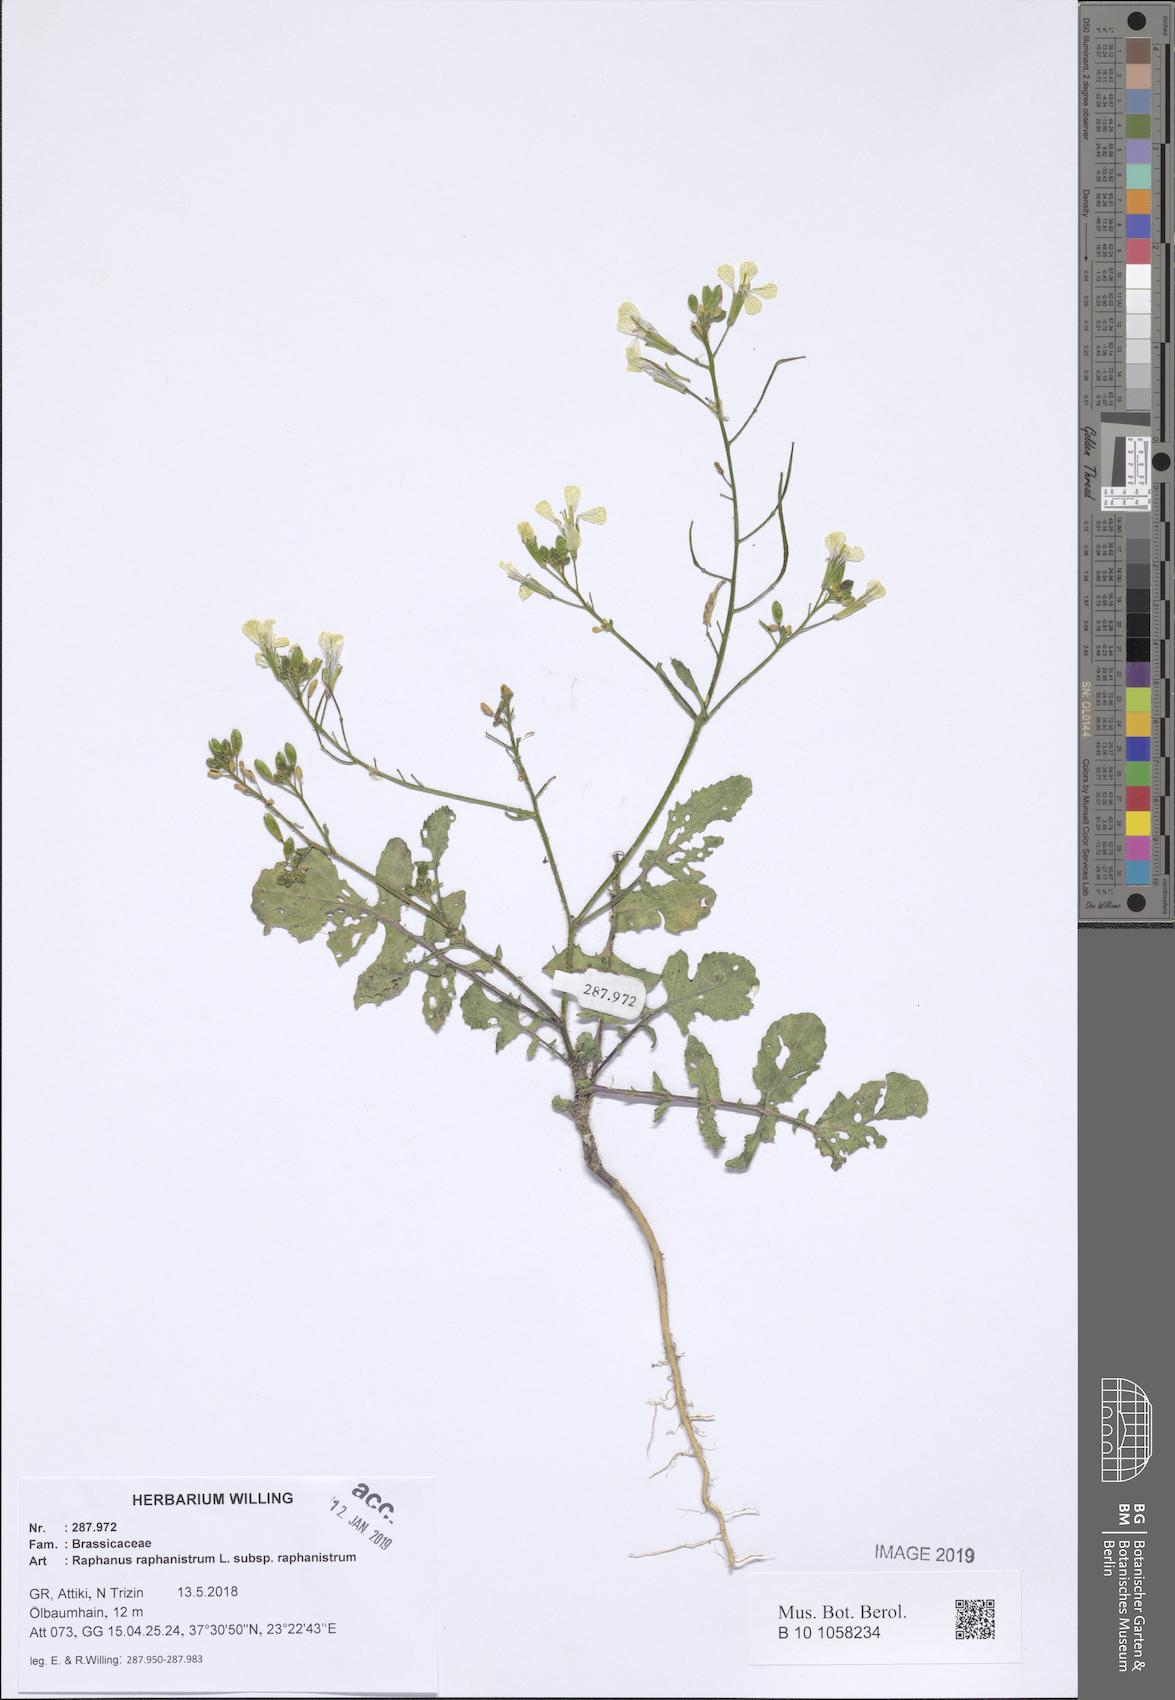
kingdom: Plantae
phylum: Tracheophyta
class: Magnoliopsida
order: Brassicales
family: Brassicaceae
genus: Raphanus
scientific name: Raphanus raphanistrum
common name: Wild radish
